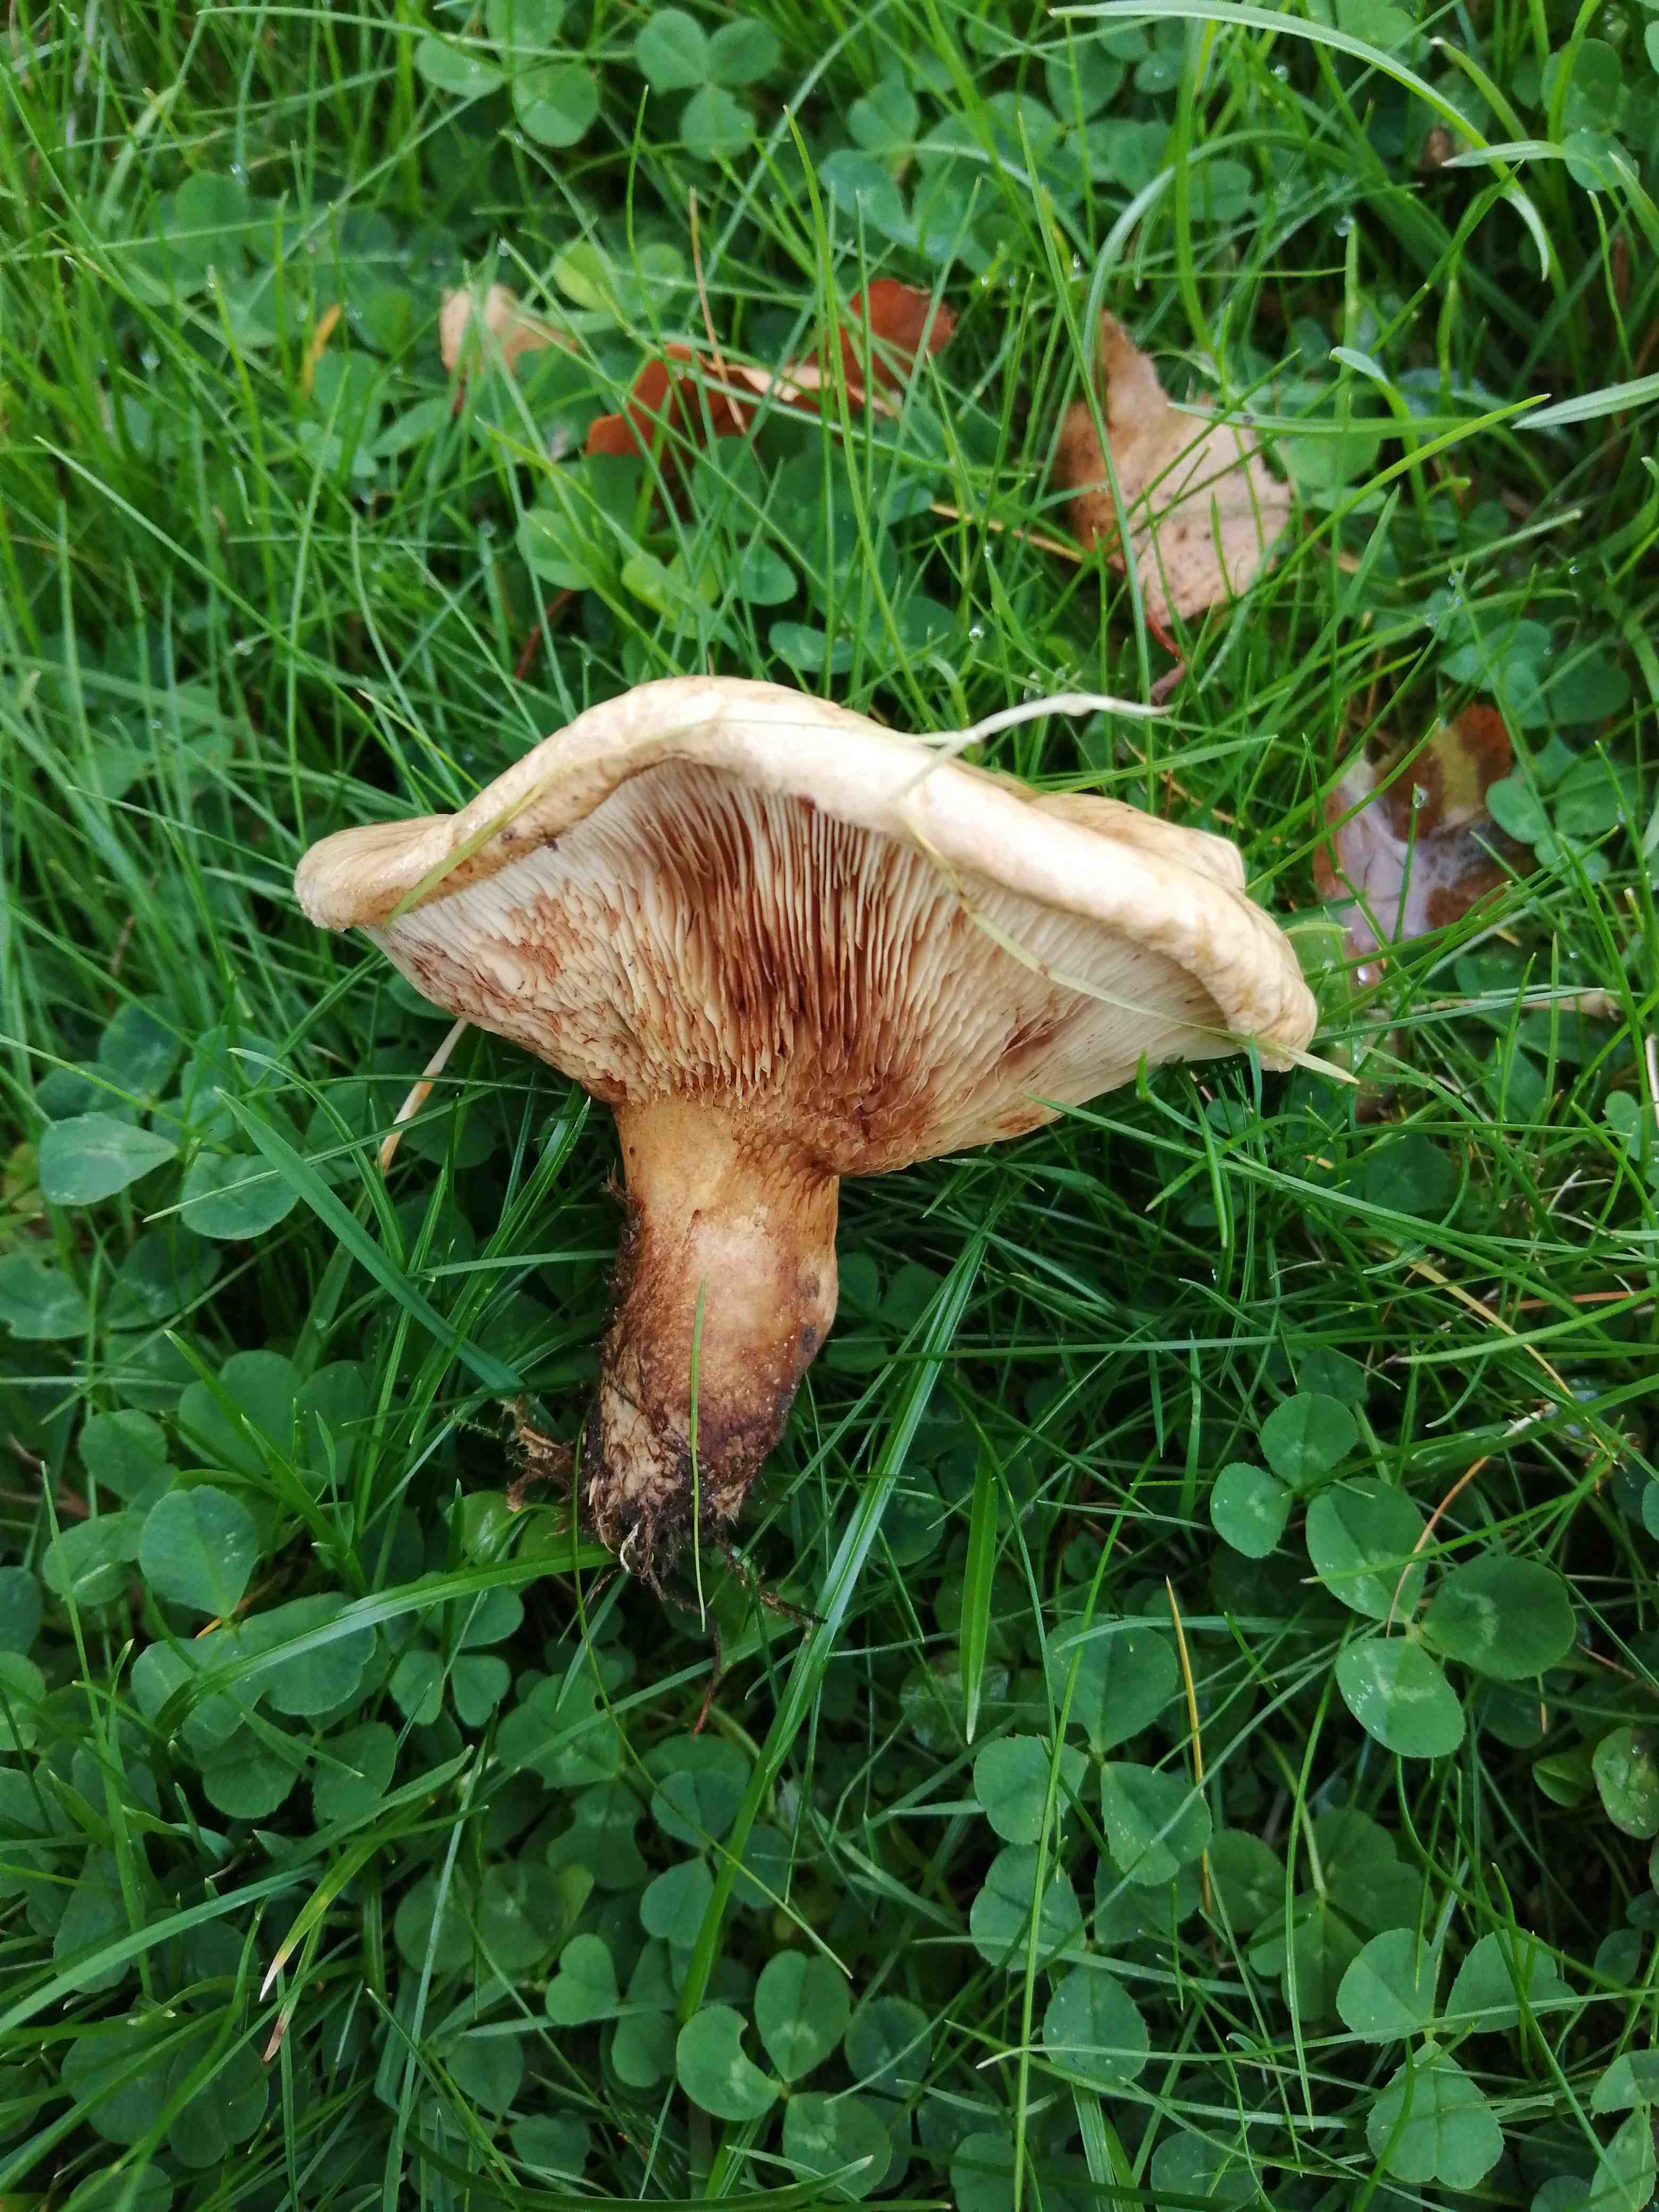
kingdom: Fungi
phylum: Basidiomycota
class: Agaricomycetes
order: Boletales
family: Paxillaceae
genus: Paxillus
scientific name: Paxillus
